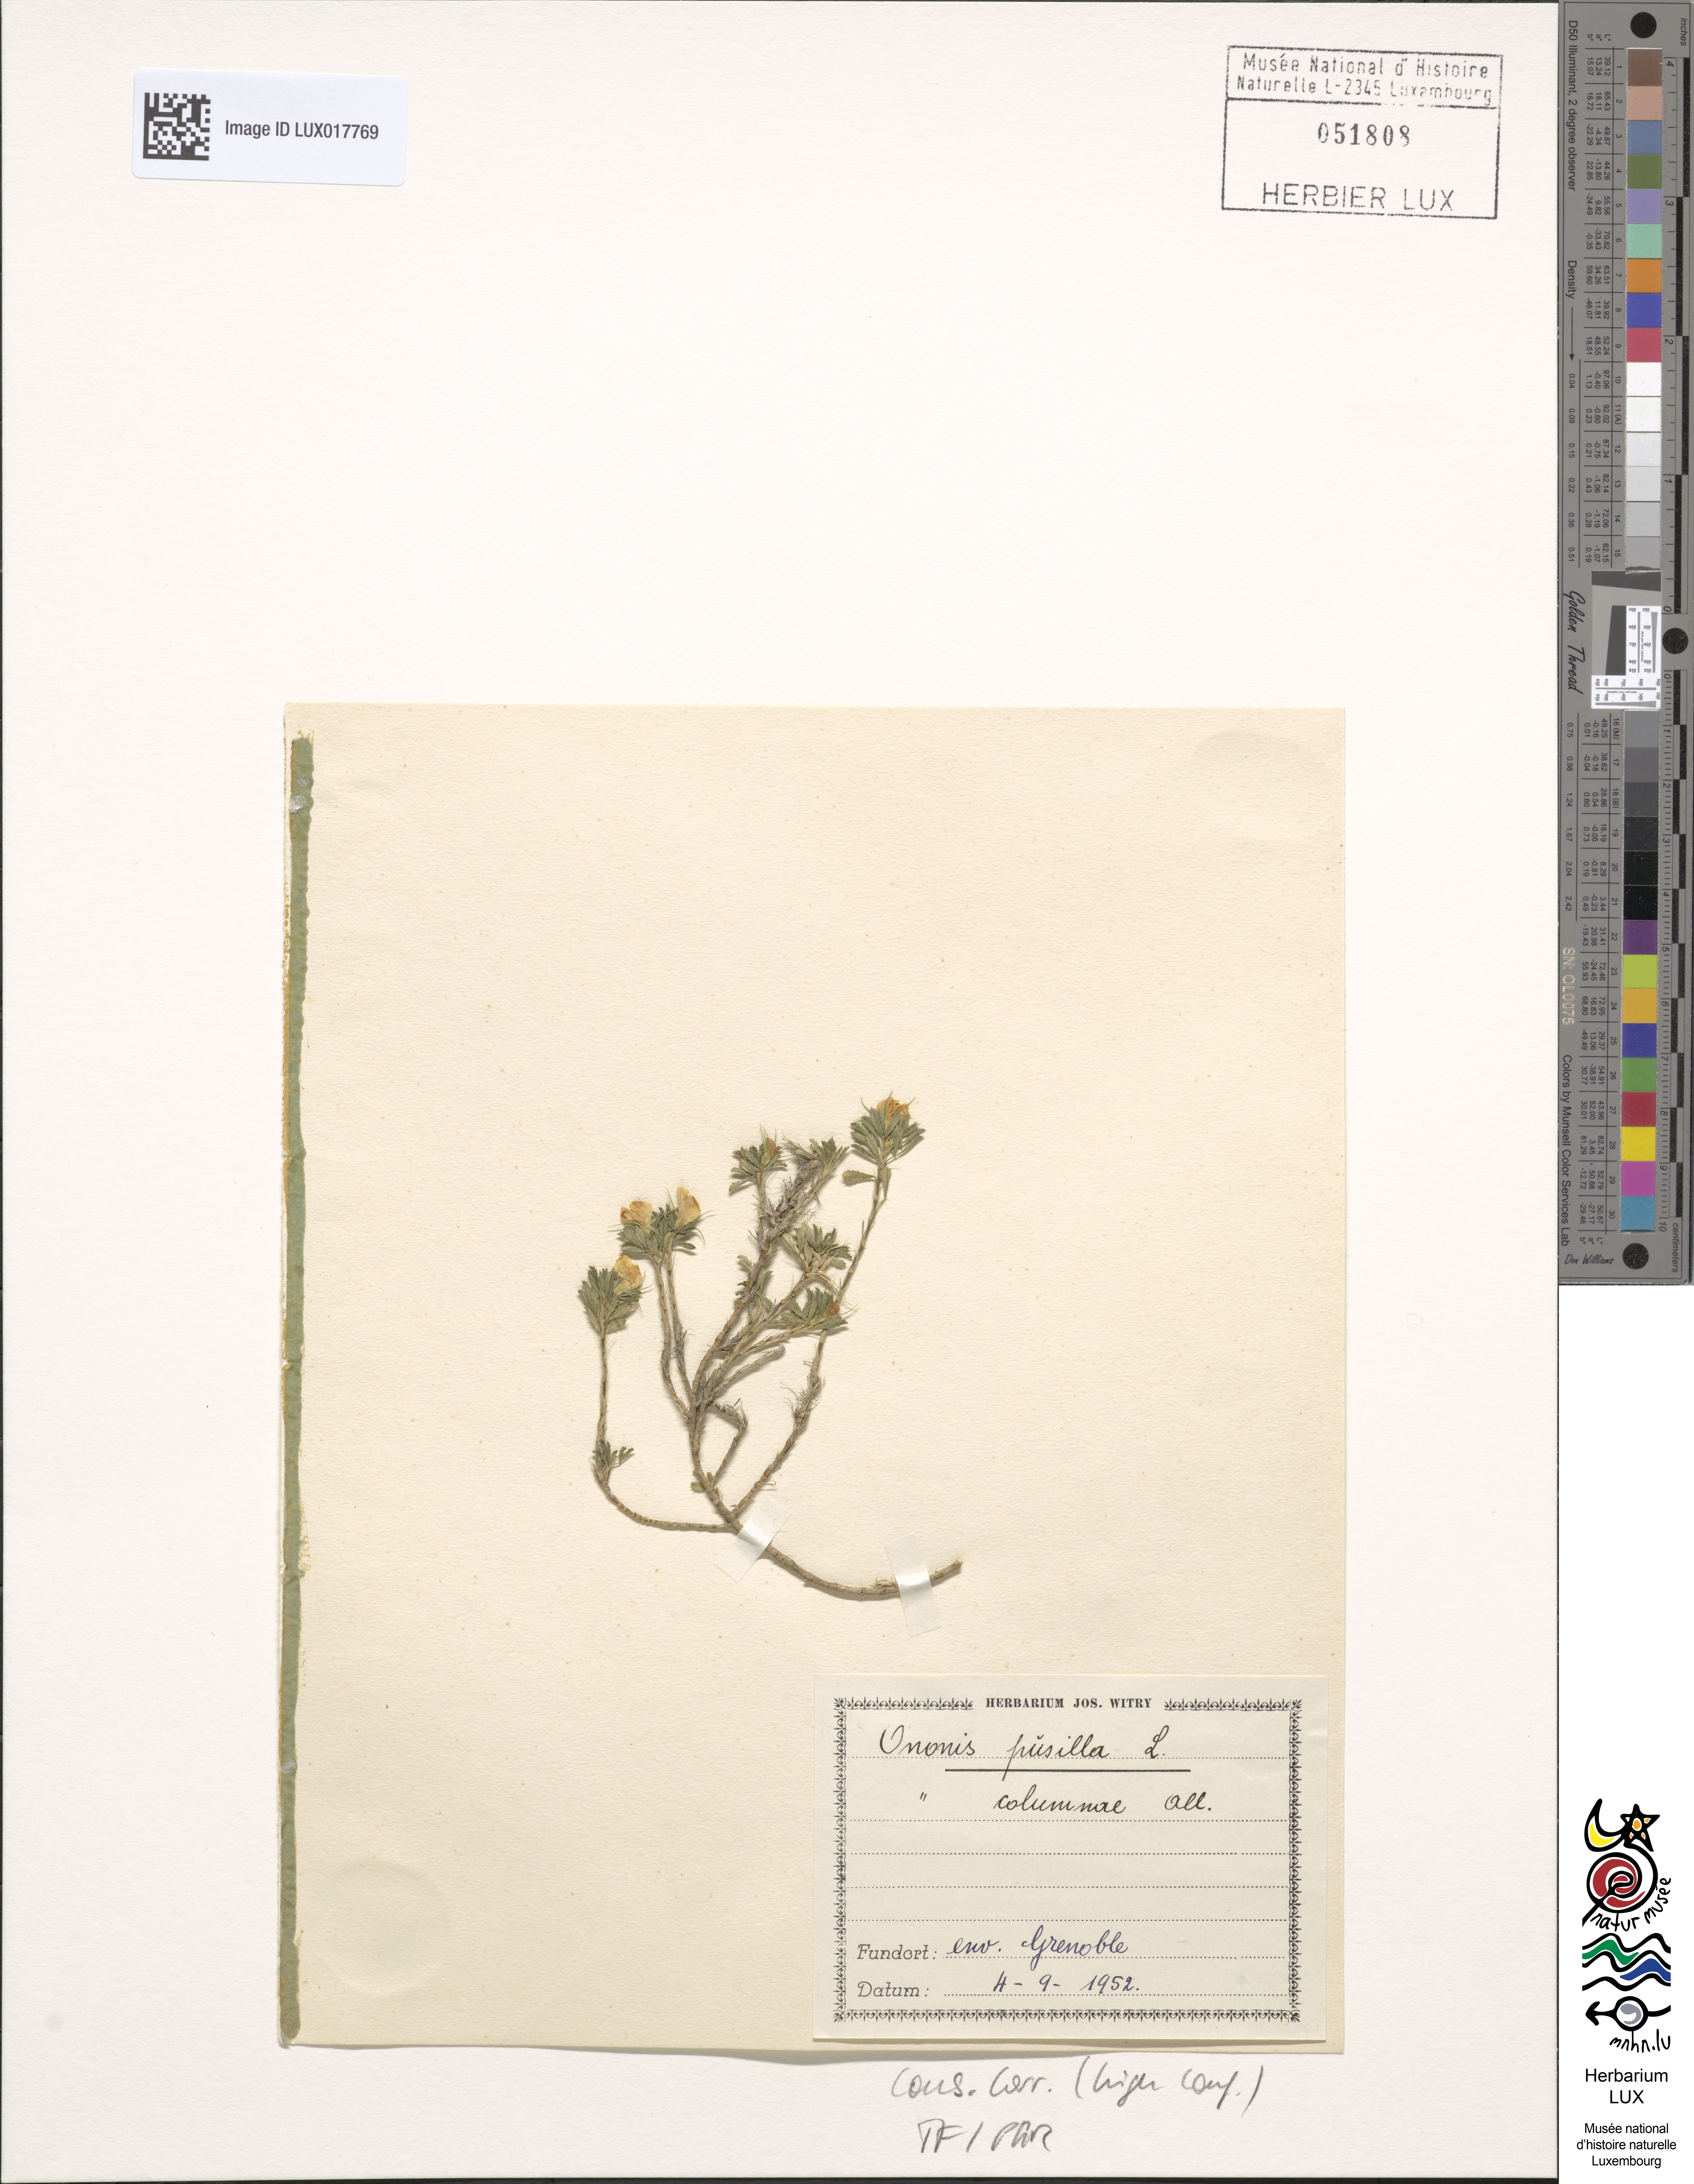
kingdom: Plantae
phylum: Tracheophyta
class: Magnoliopsida
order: Fabales
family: Fabaceae
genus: Ononis
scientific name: Ononis pusilla
